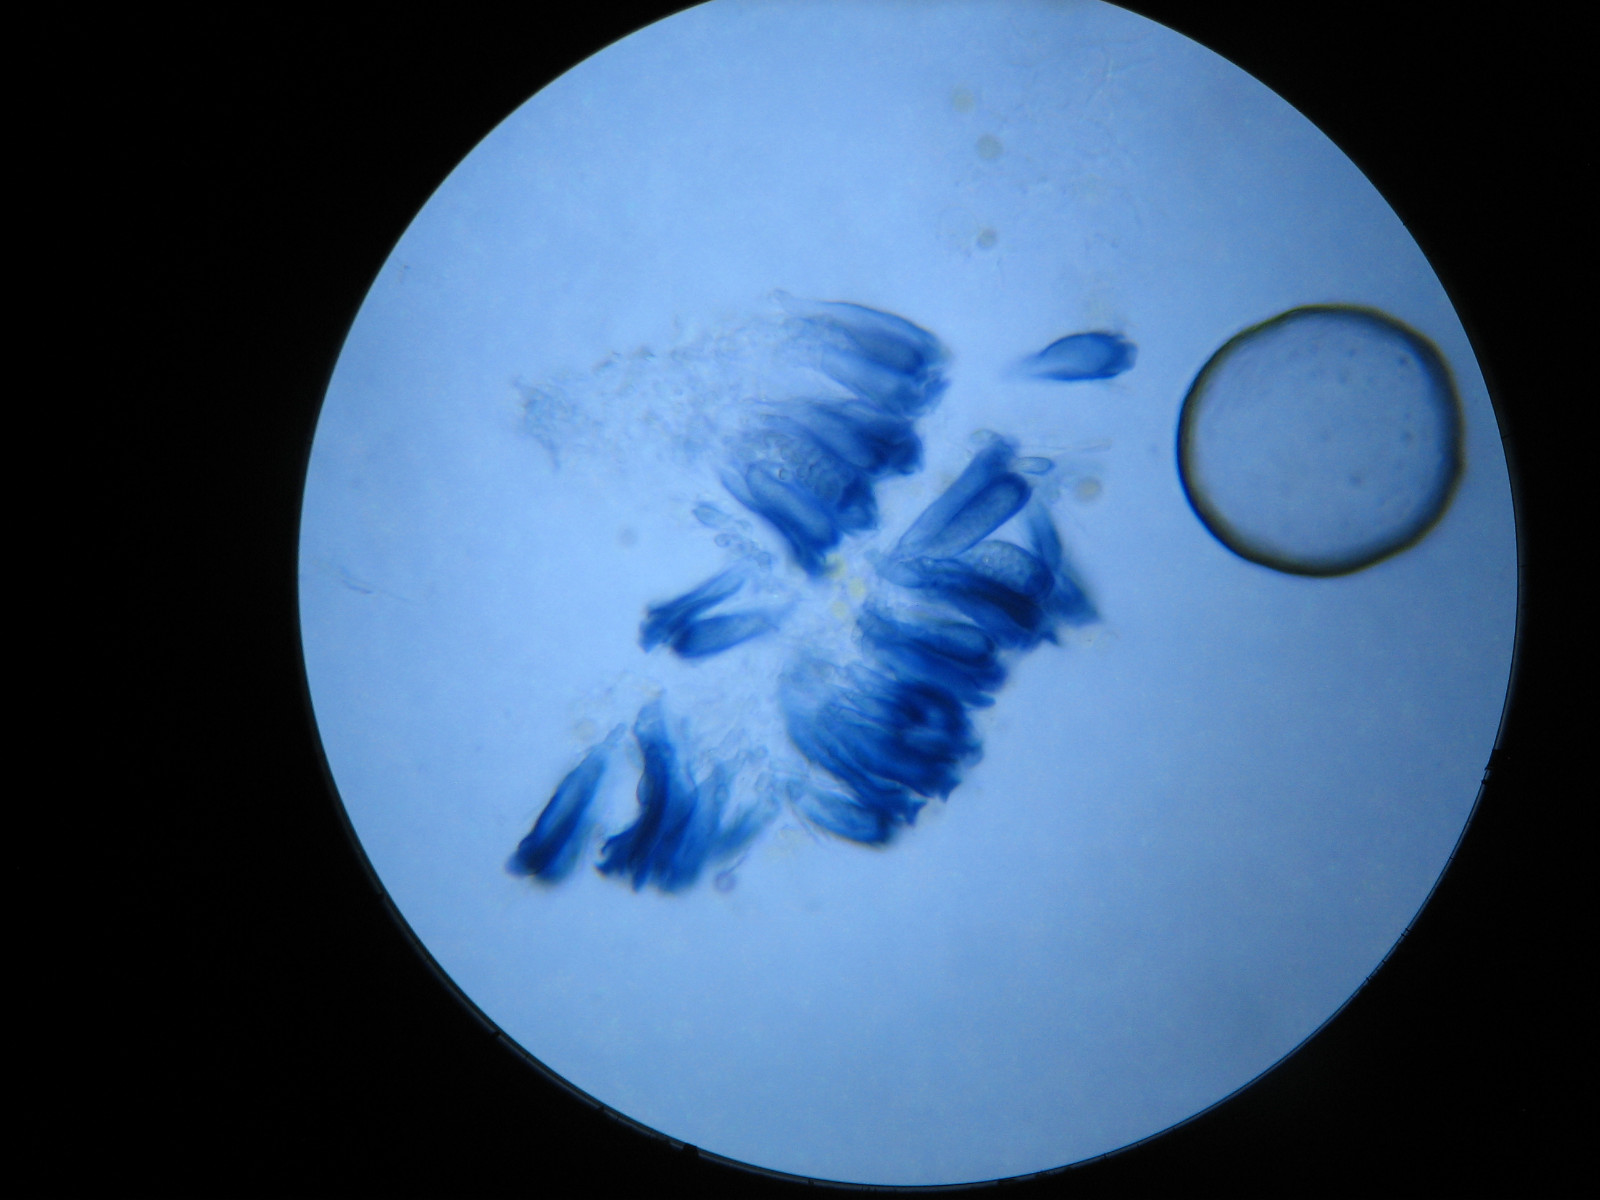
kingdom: Fungi
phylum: Ascomycota
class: Lecanoromycetes
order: Lecanorales
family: Lecanoraceae
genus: Polyozosia
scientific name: Polyozosia sambuci
